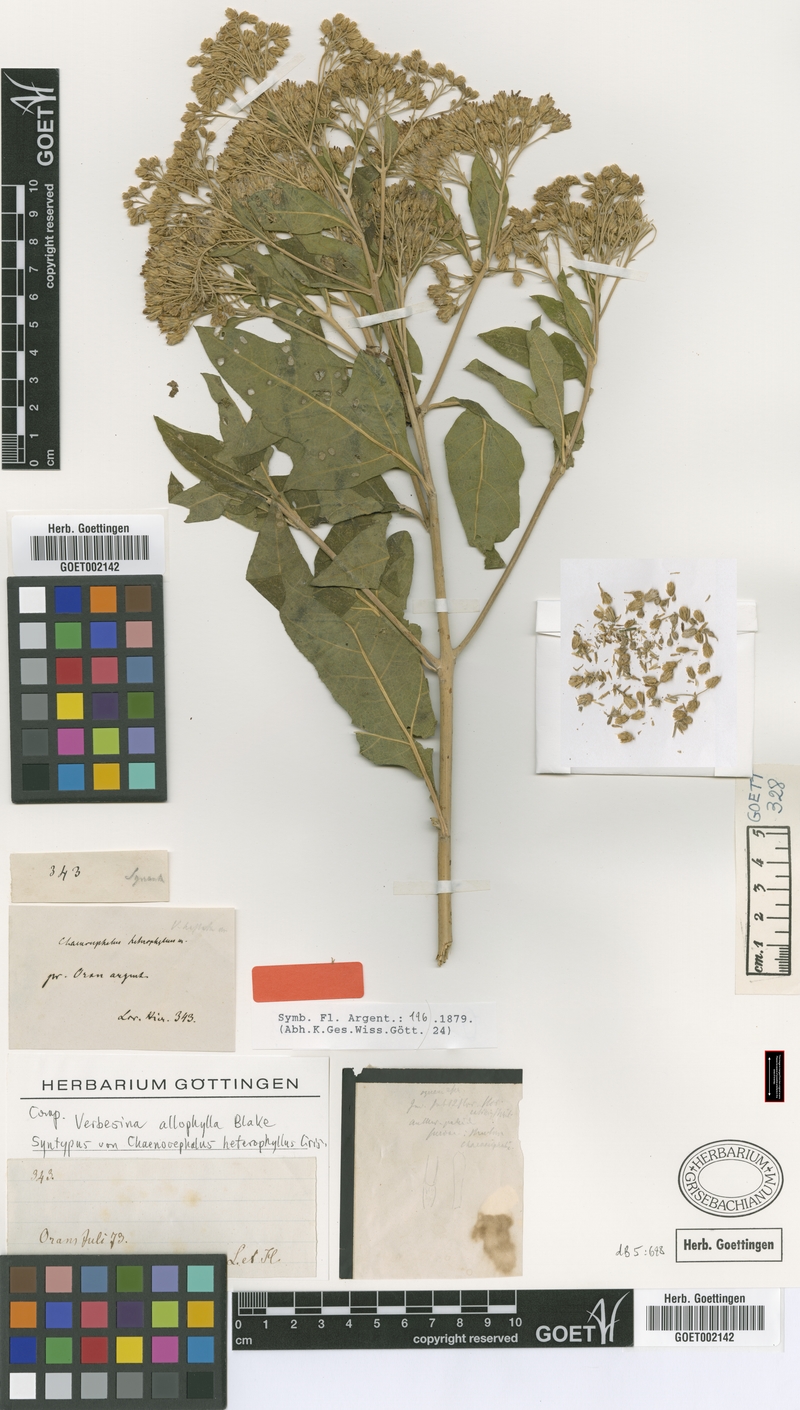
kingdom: Plantae
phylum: Tracheophyta
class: Magnoliopsida
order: Asterales
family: Asteraceae
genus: Verbesina
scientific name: Verbesina allophylla
